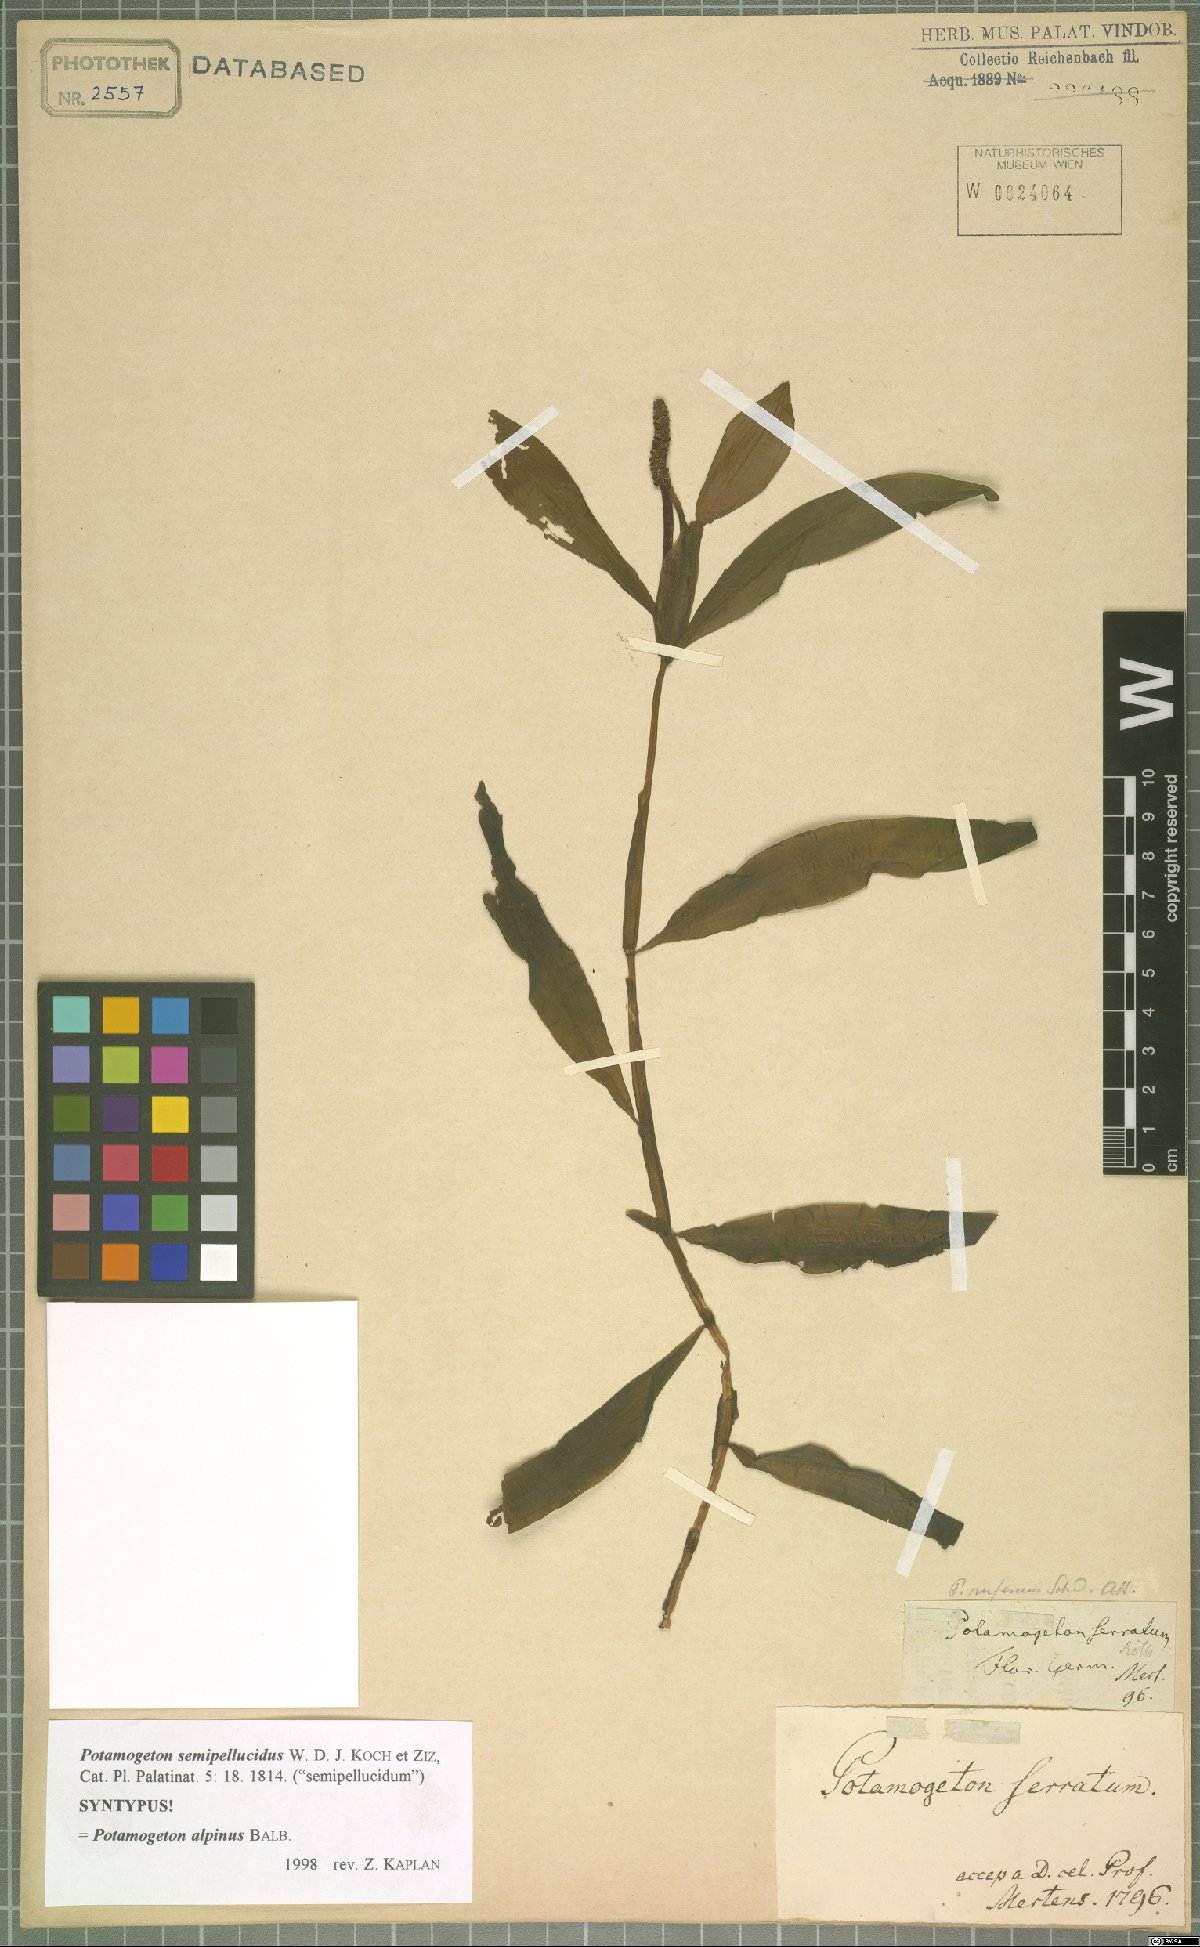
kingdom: Plantae
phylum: Tracheophyta
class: Liliopsida
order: Alismatales
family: Potamogetonaceae
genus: Potamogeton
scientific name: Potamogeton alpinus
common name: Red pondweed
